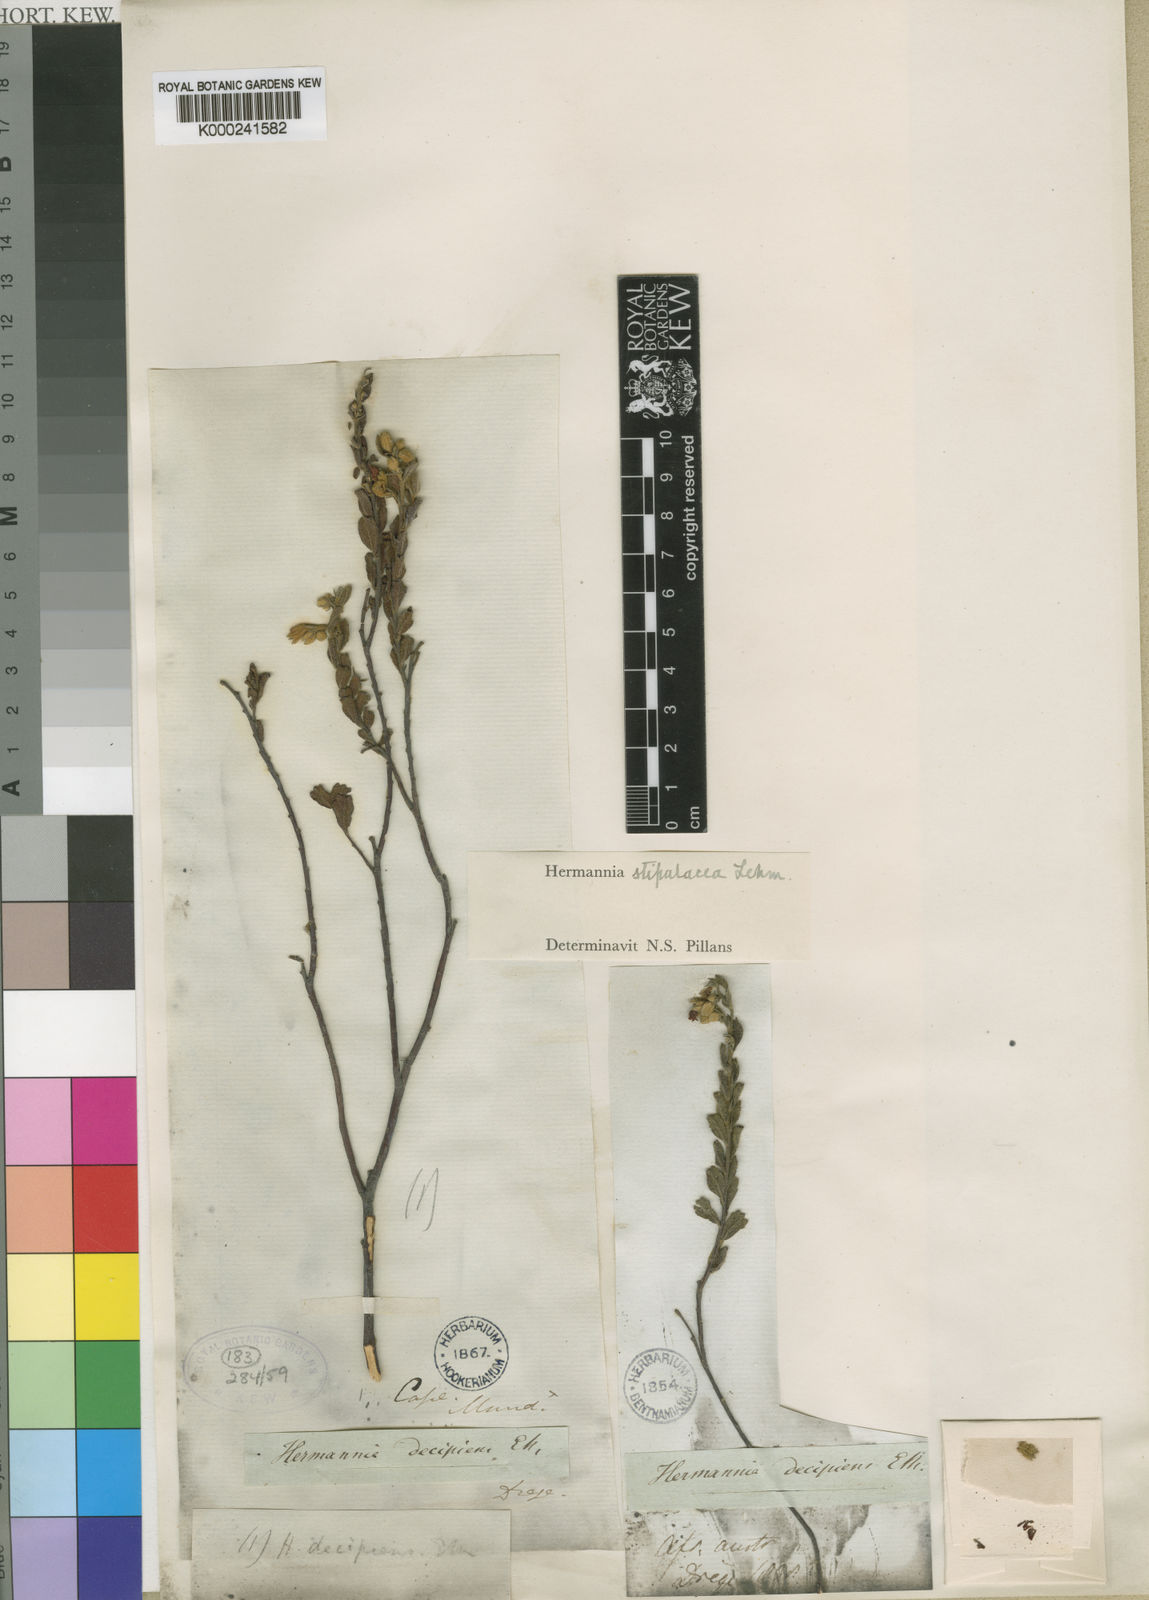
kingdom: Plantae
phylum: Tracheophyta
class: Magnoliopsida
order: Malvales
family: Malvaceae
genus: Hermannia
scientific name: Hermannia stipulacea
